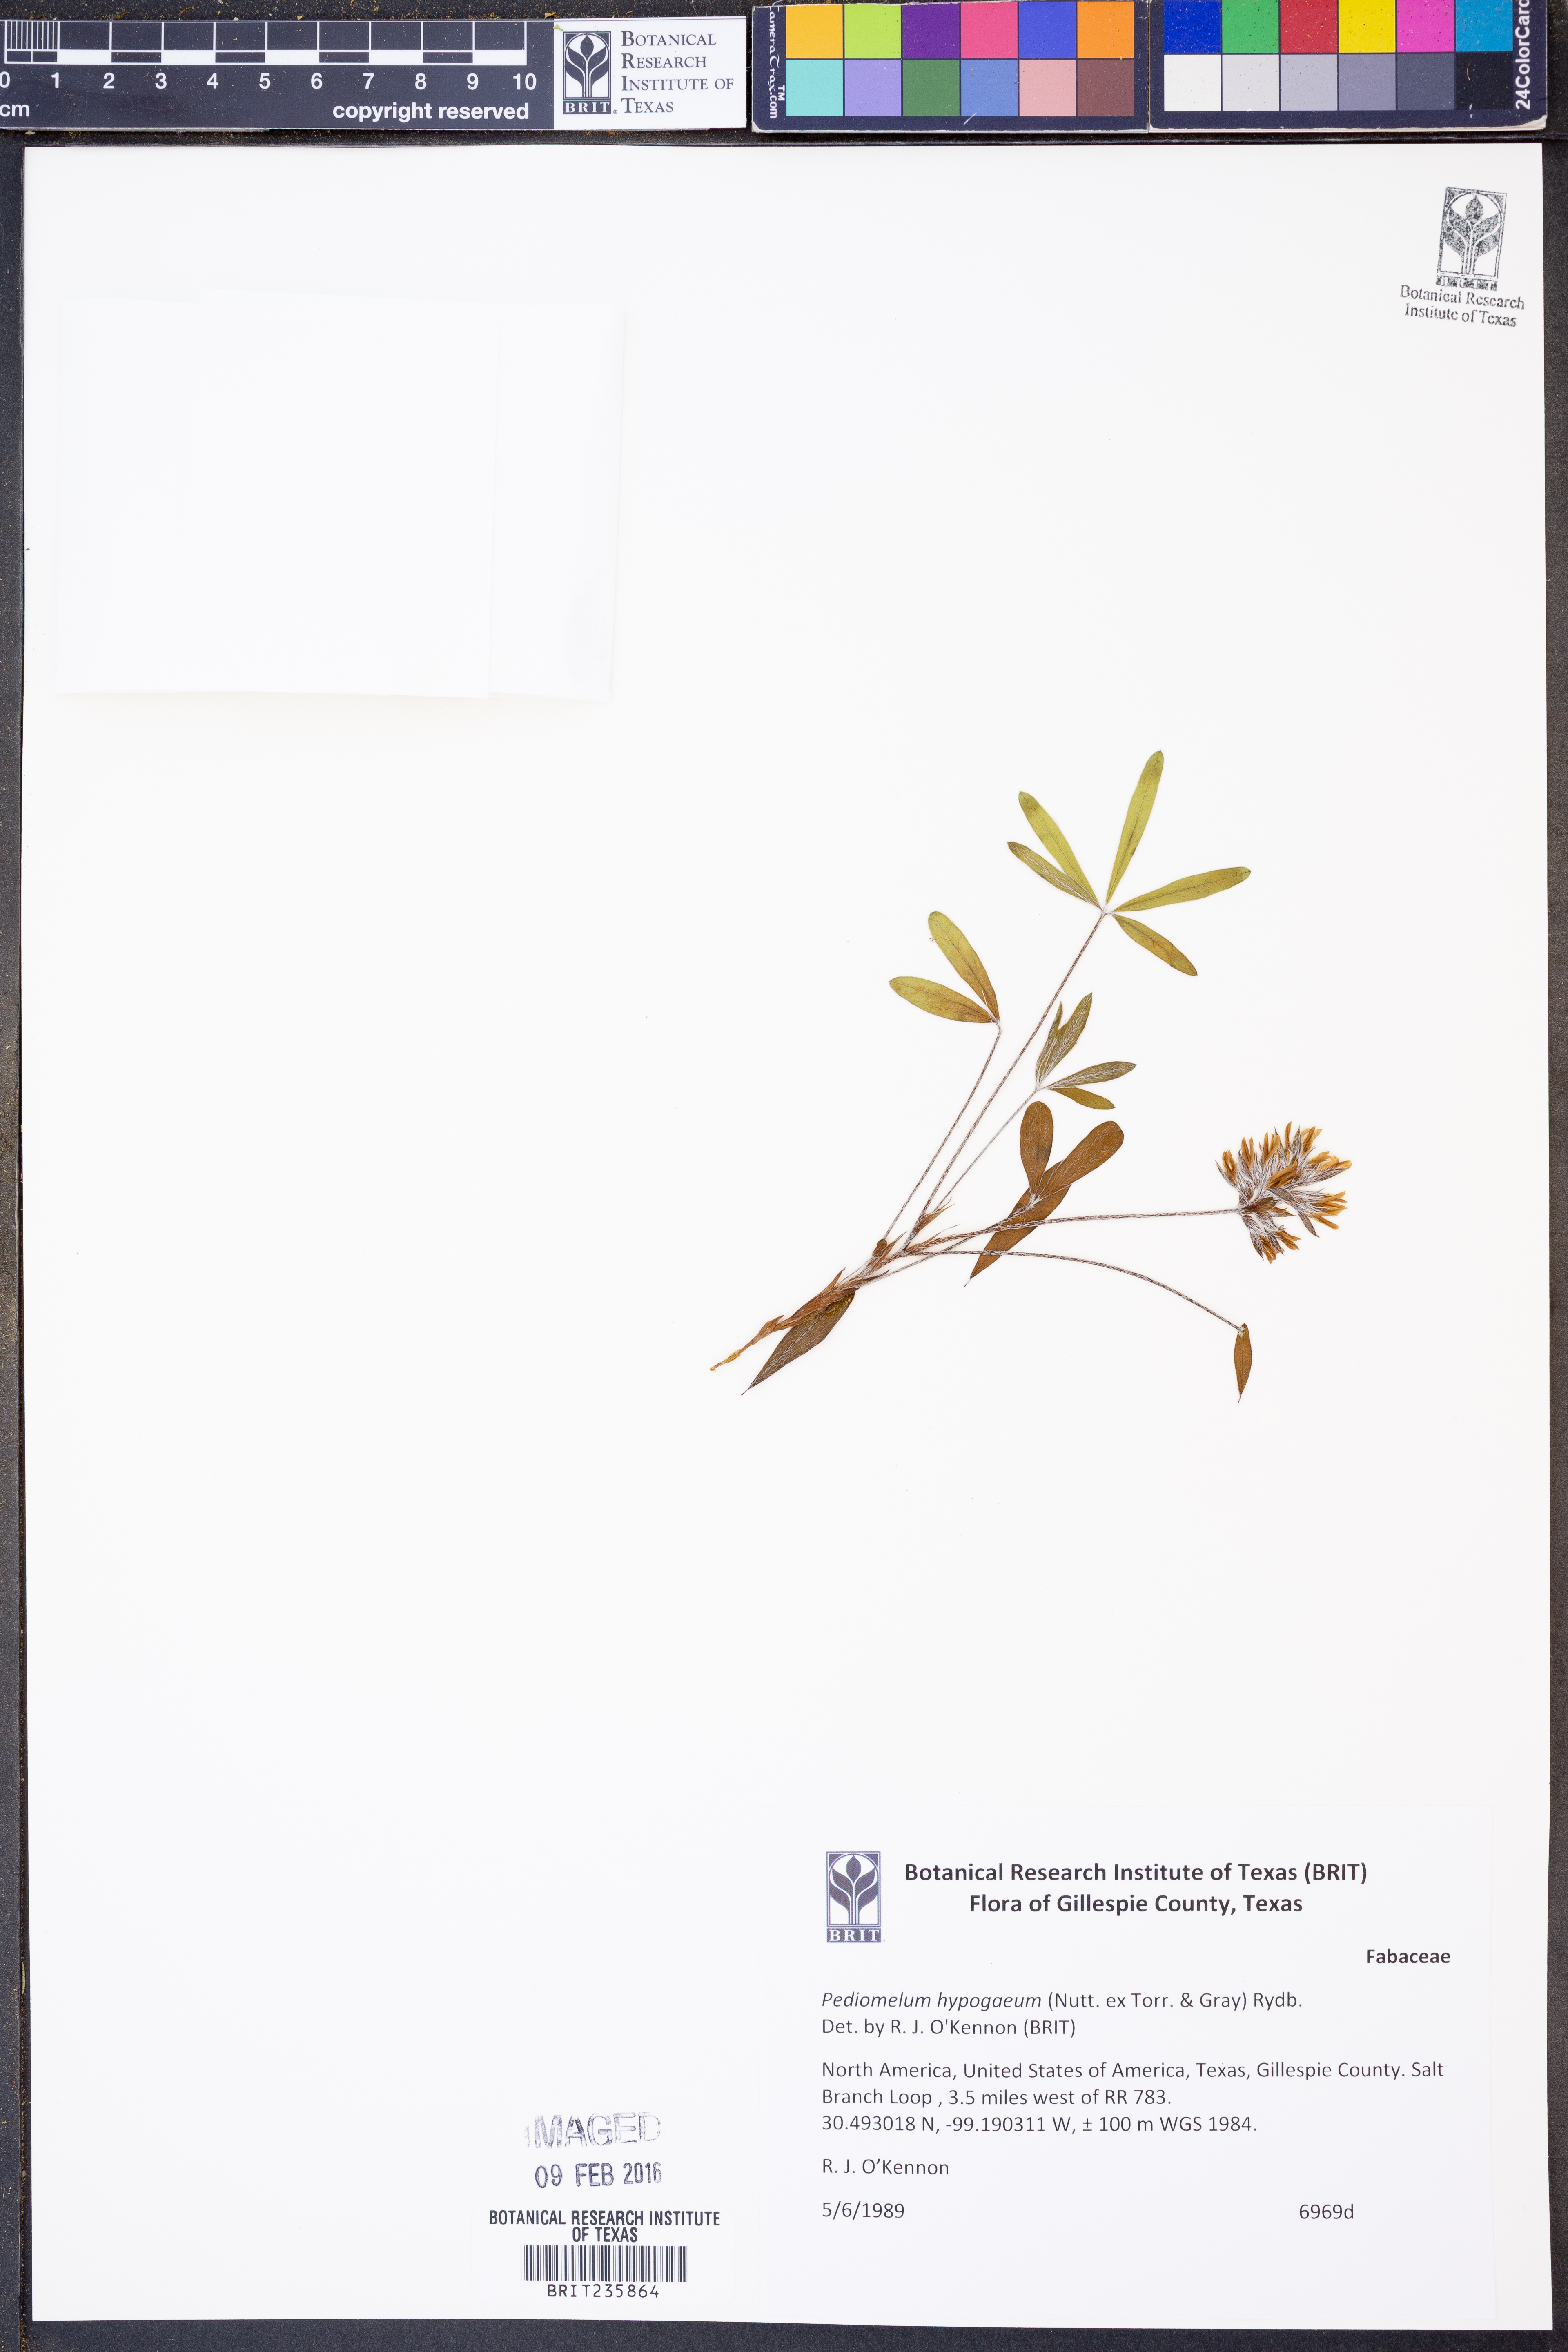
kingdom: Plantae
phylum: Tracheophyta
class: Magnoliopsida
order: Fabales
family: Fabaceae
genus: Pediomelum
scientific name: Pediomelum hypogaeum
